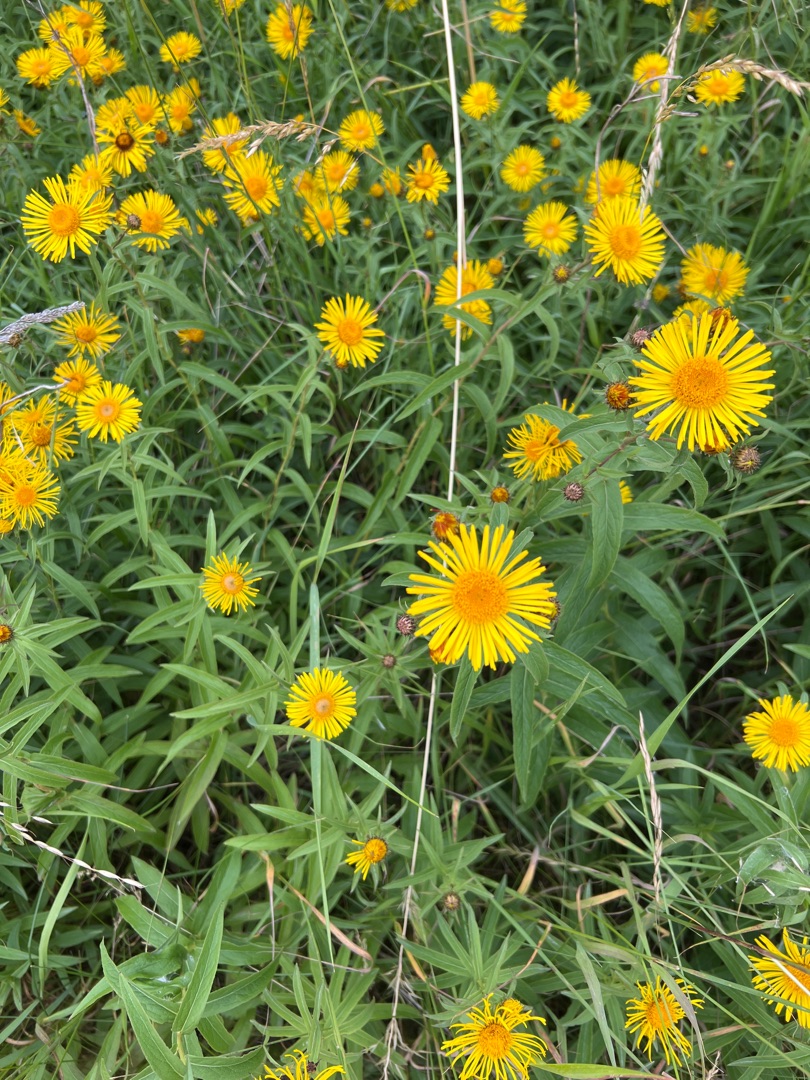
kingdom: Plantae
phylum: Tracheophyta
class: Magnoliopsida
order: Asterales
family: Asteraceae
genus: Pentanema
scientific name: Pentanema salicinum
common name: Pile-alant
